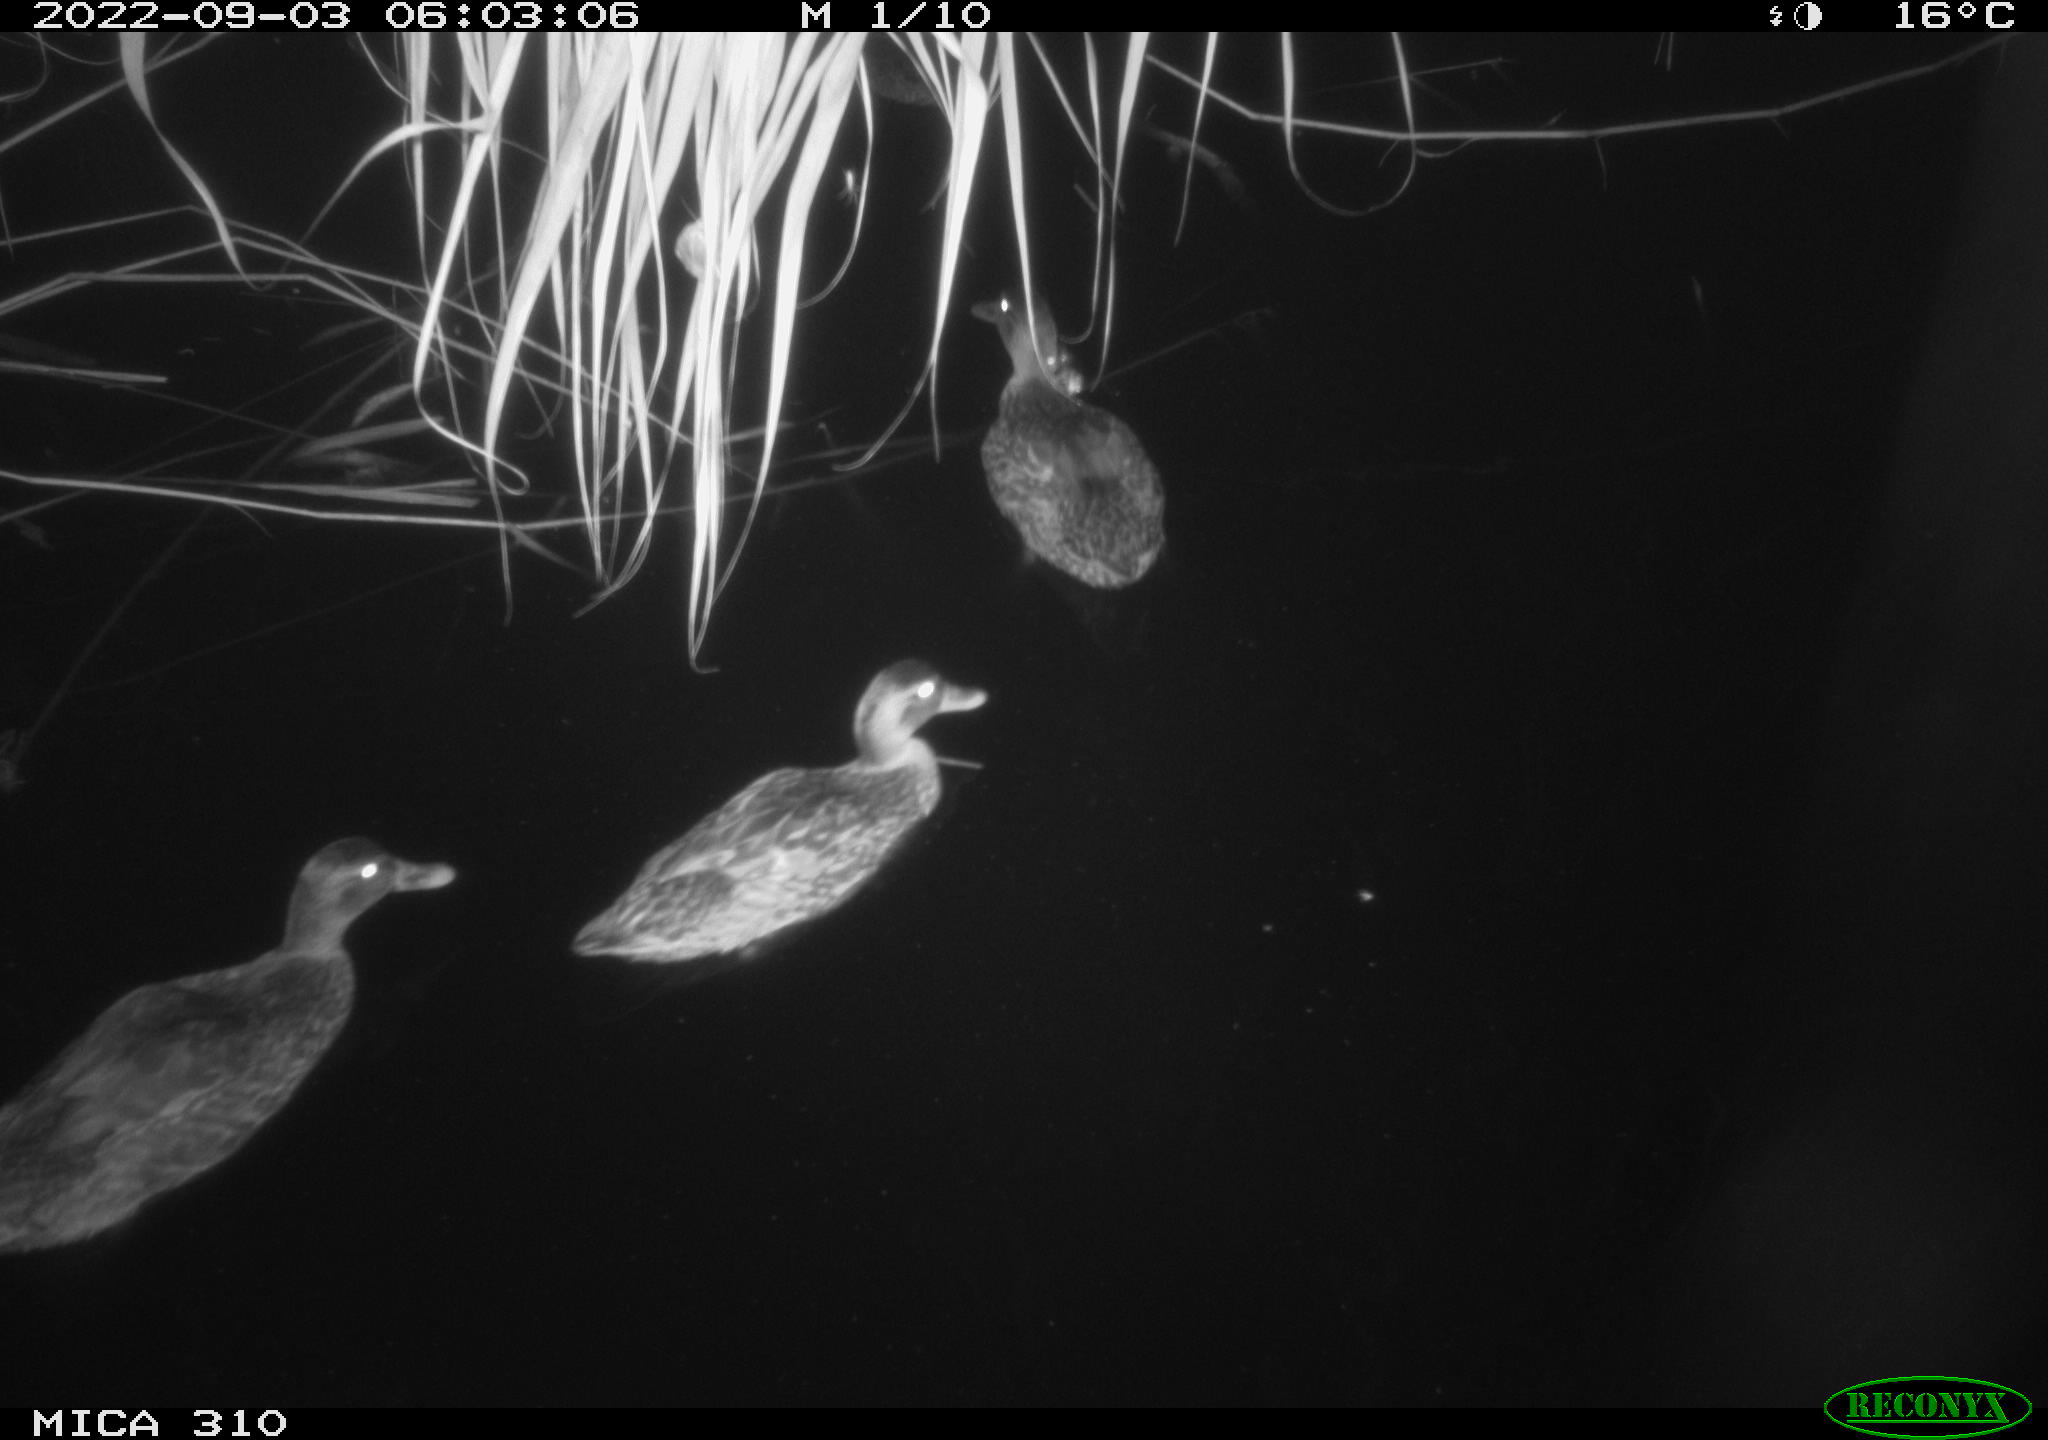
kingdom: Animalia
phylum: Chordata
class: Aves
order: Gruiformes
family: Rallidae
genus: Fulica
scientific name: Fulica atra
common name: Eurasian coot
